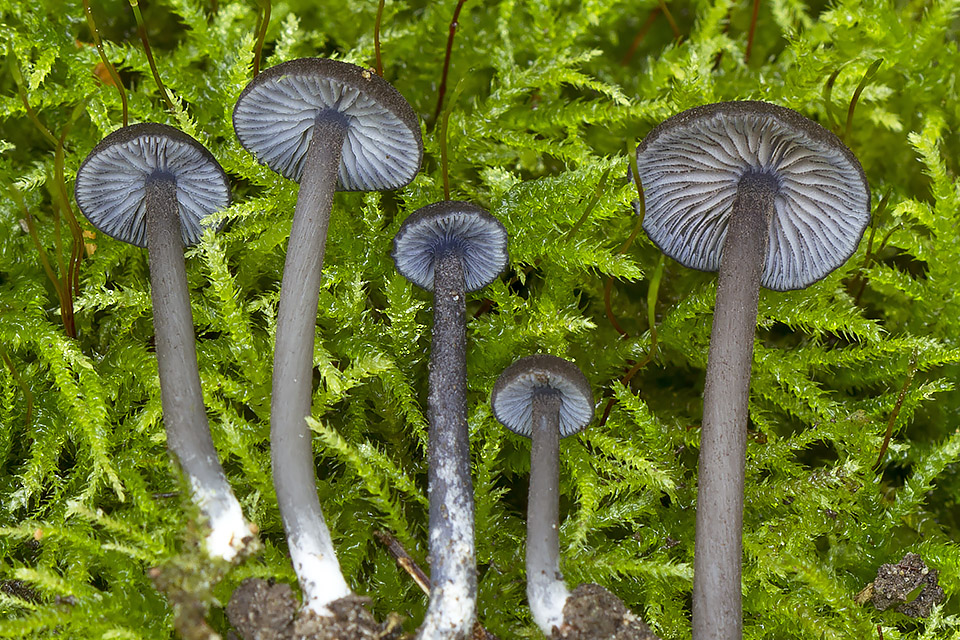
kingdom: Fungi
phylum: Basidiomycota
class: Agaricomycetes
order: Agaricales
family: Entolomataceae
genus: Entoloma
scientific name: Entoloma linkii
